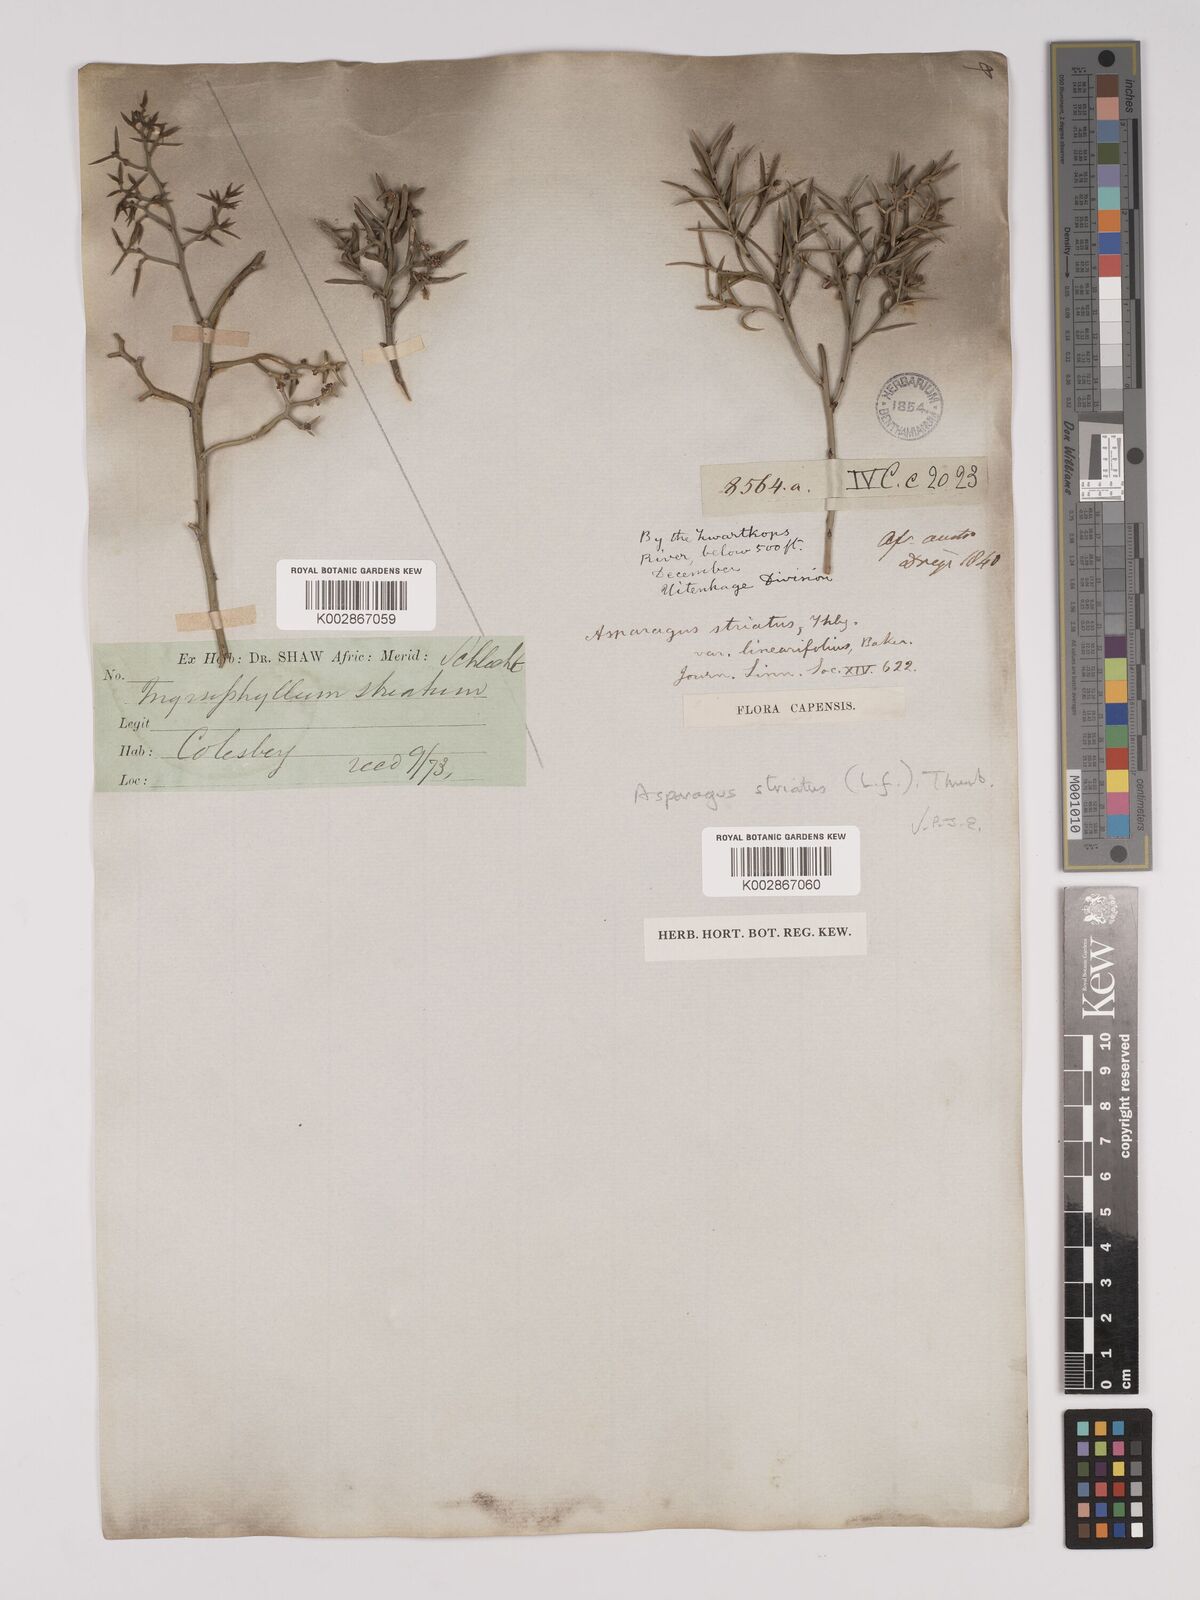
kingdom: Plantae
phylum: Tracheophyta
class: Liliopsida
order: Asparagales
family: Asparagaceae
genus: Asparagus
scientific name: Asparagus striatus
